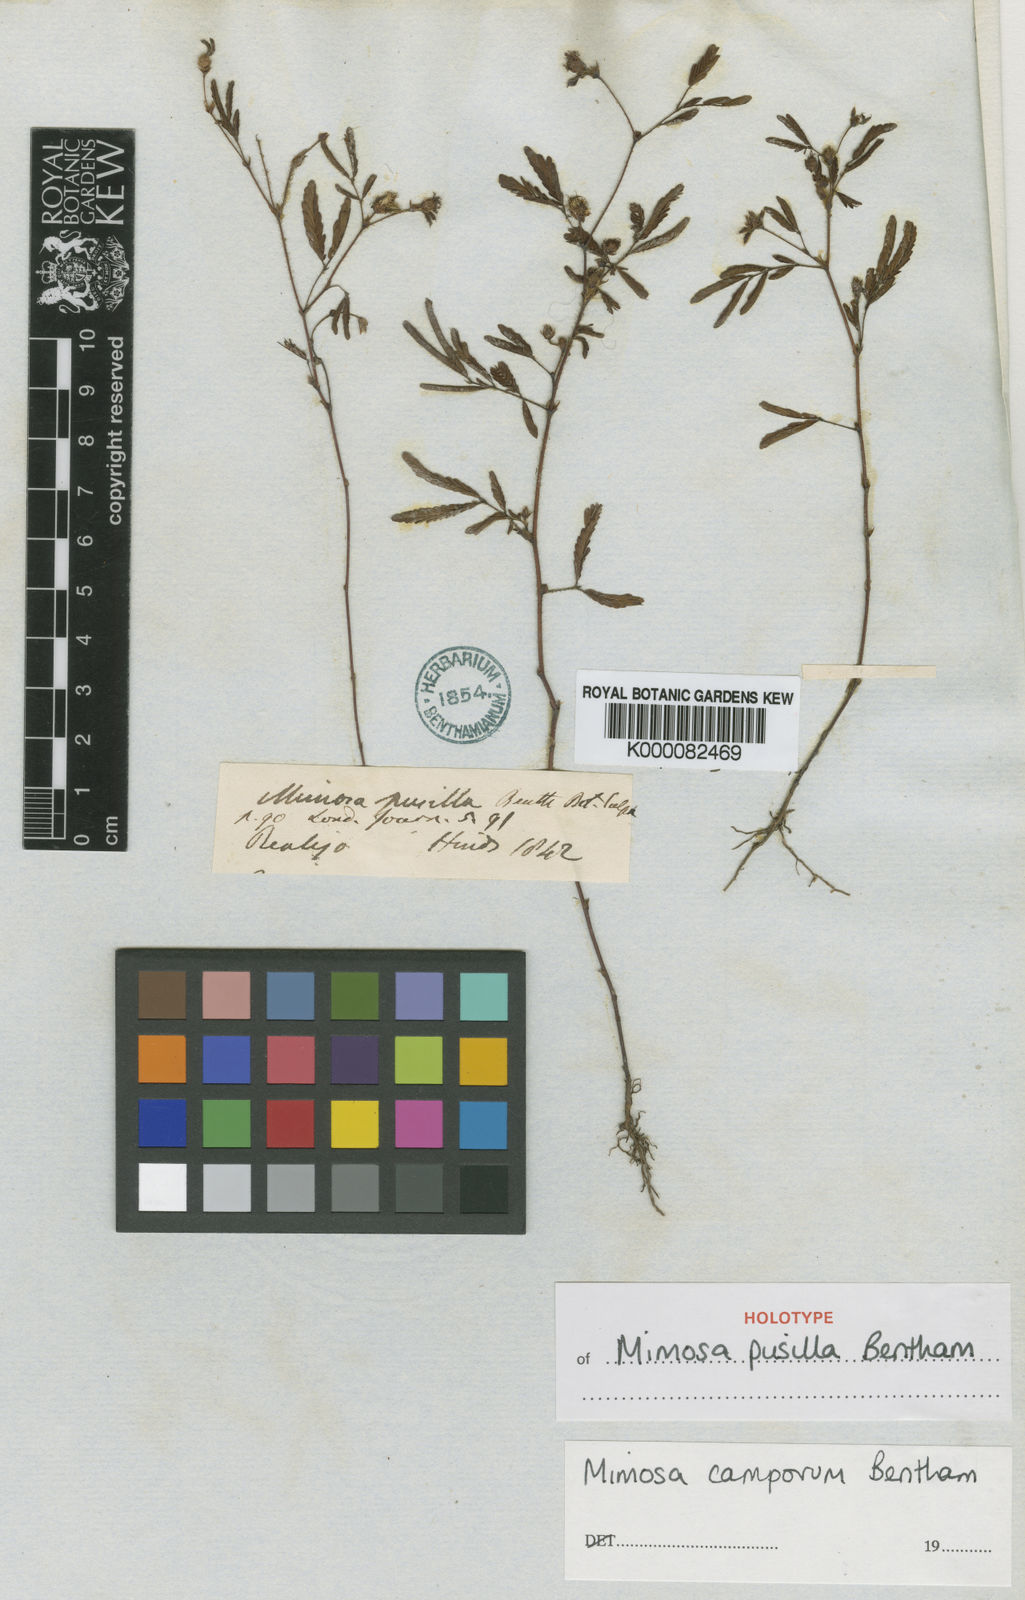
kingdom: Plantae
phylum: Tracheophyta
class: Magnoliopsida
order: Fabales
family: Fabaceae
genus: Mimosa
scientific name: Mimosa camporum
